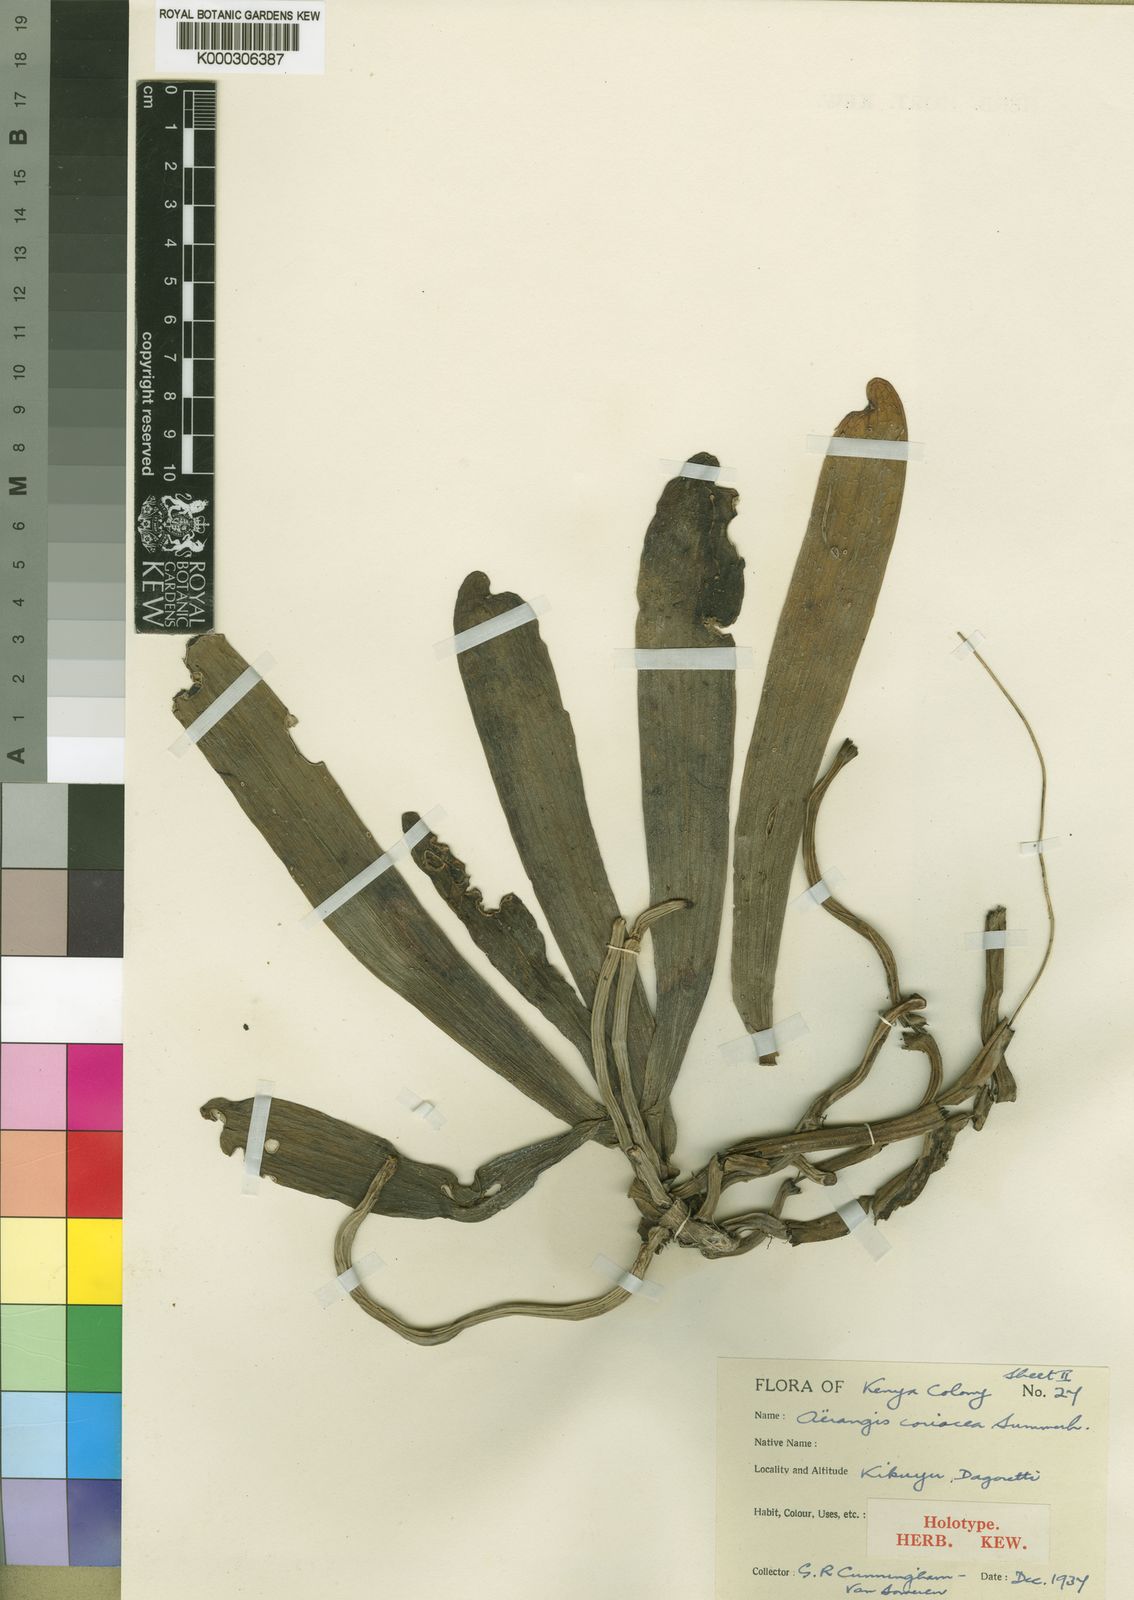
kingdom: Plantae
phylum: Tracheophyta
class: Liliopsida
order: Asparagales
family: Orchidaceae
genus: Aerangis
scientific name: Aerangis coriacea
